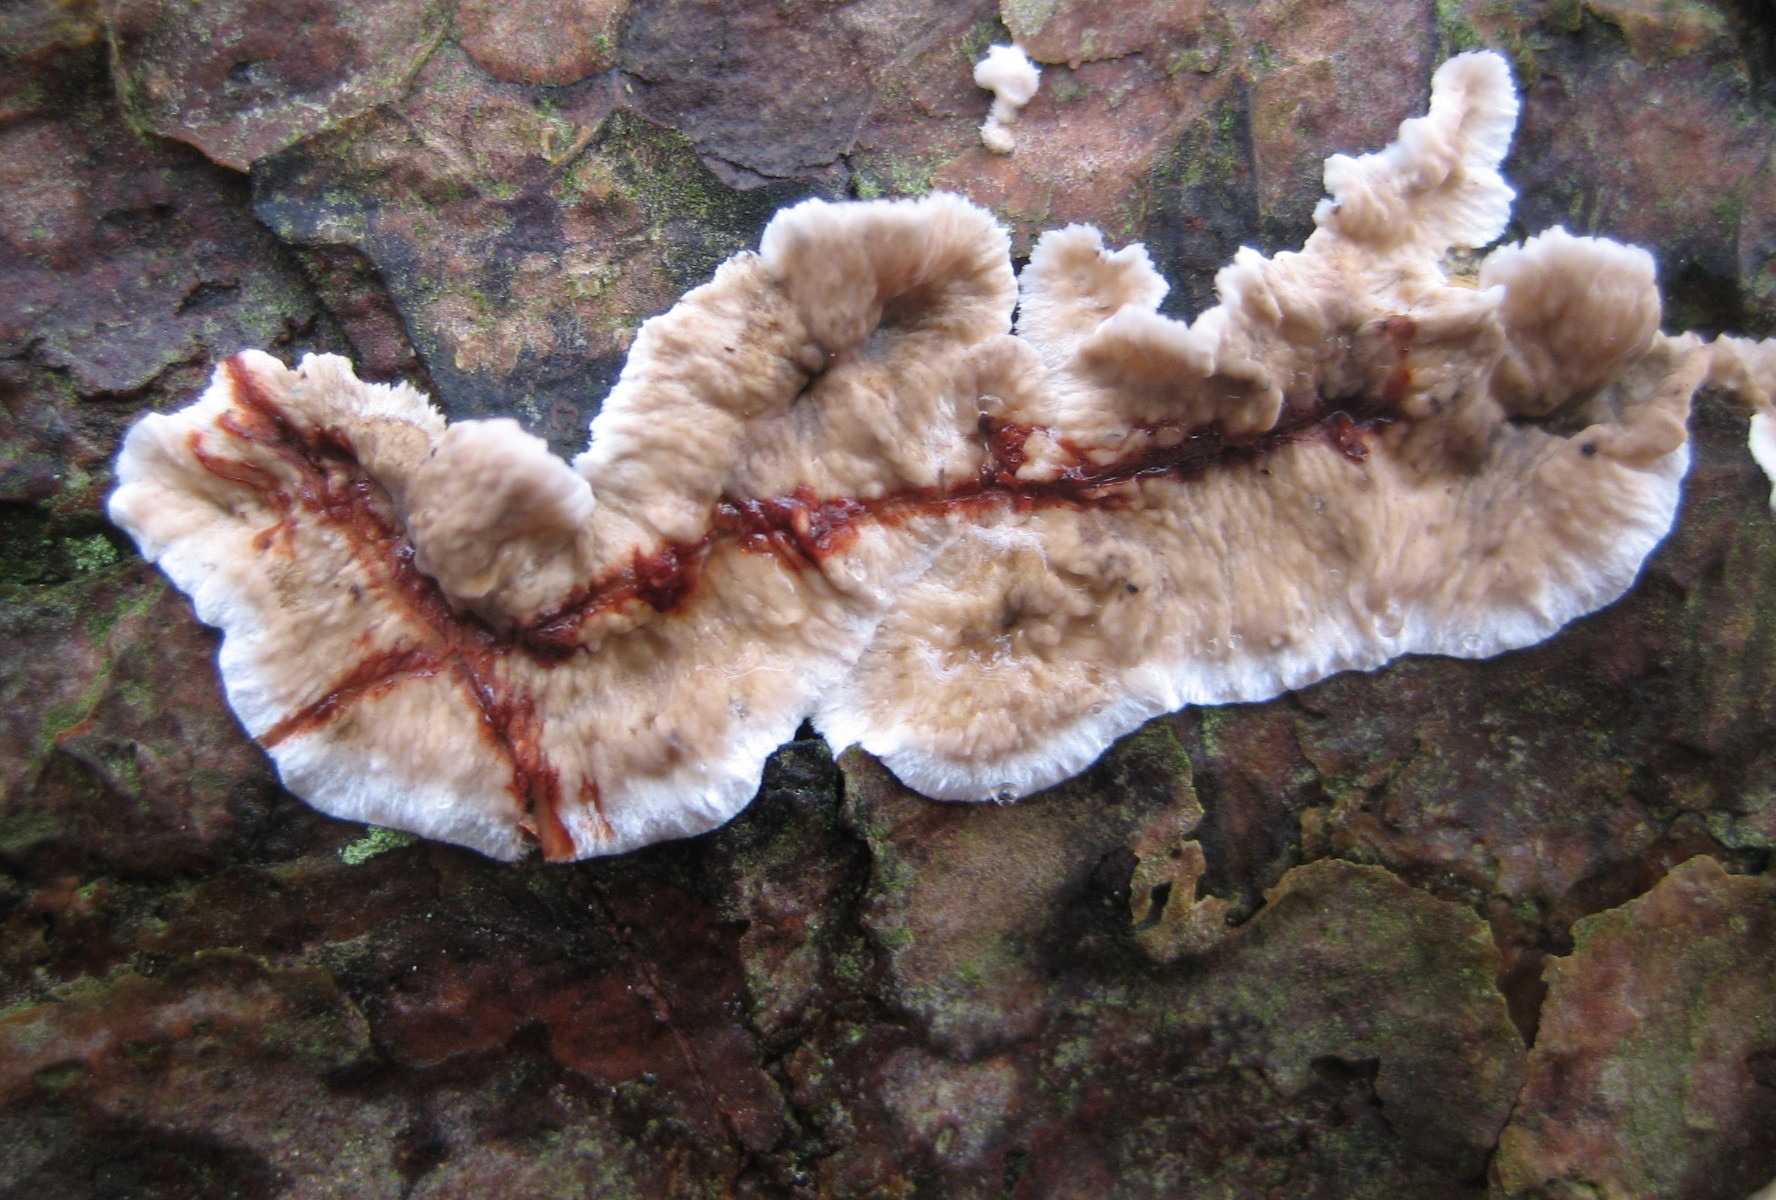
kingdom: Fungi
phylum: Basidiomycota
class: Agaricomycetes
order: Russulales
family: Stereaceae
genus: Stereum
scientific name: Stereum sanguinolentum
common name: blødende lædersvamp
